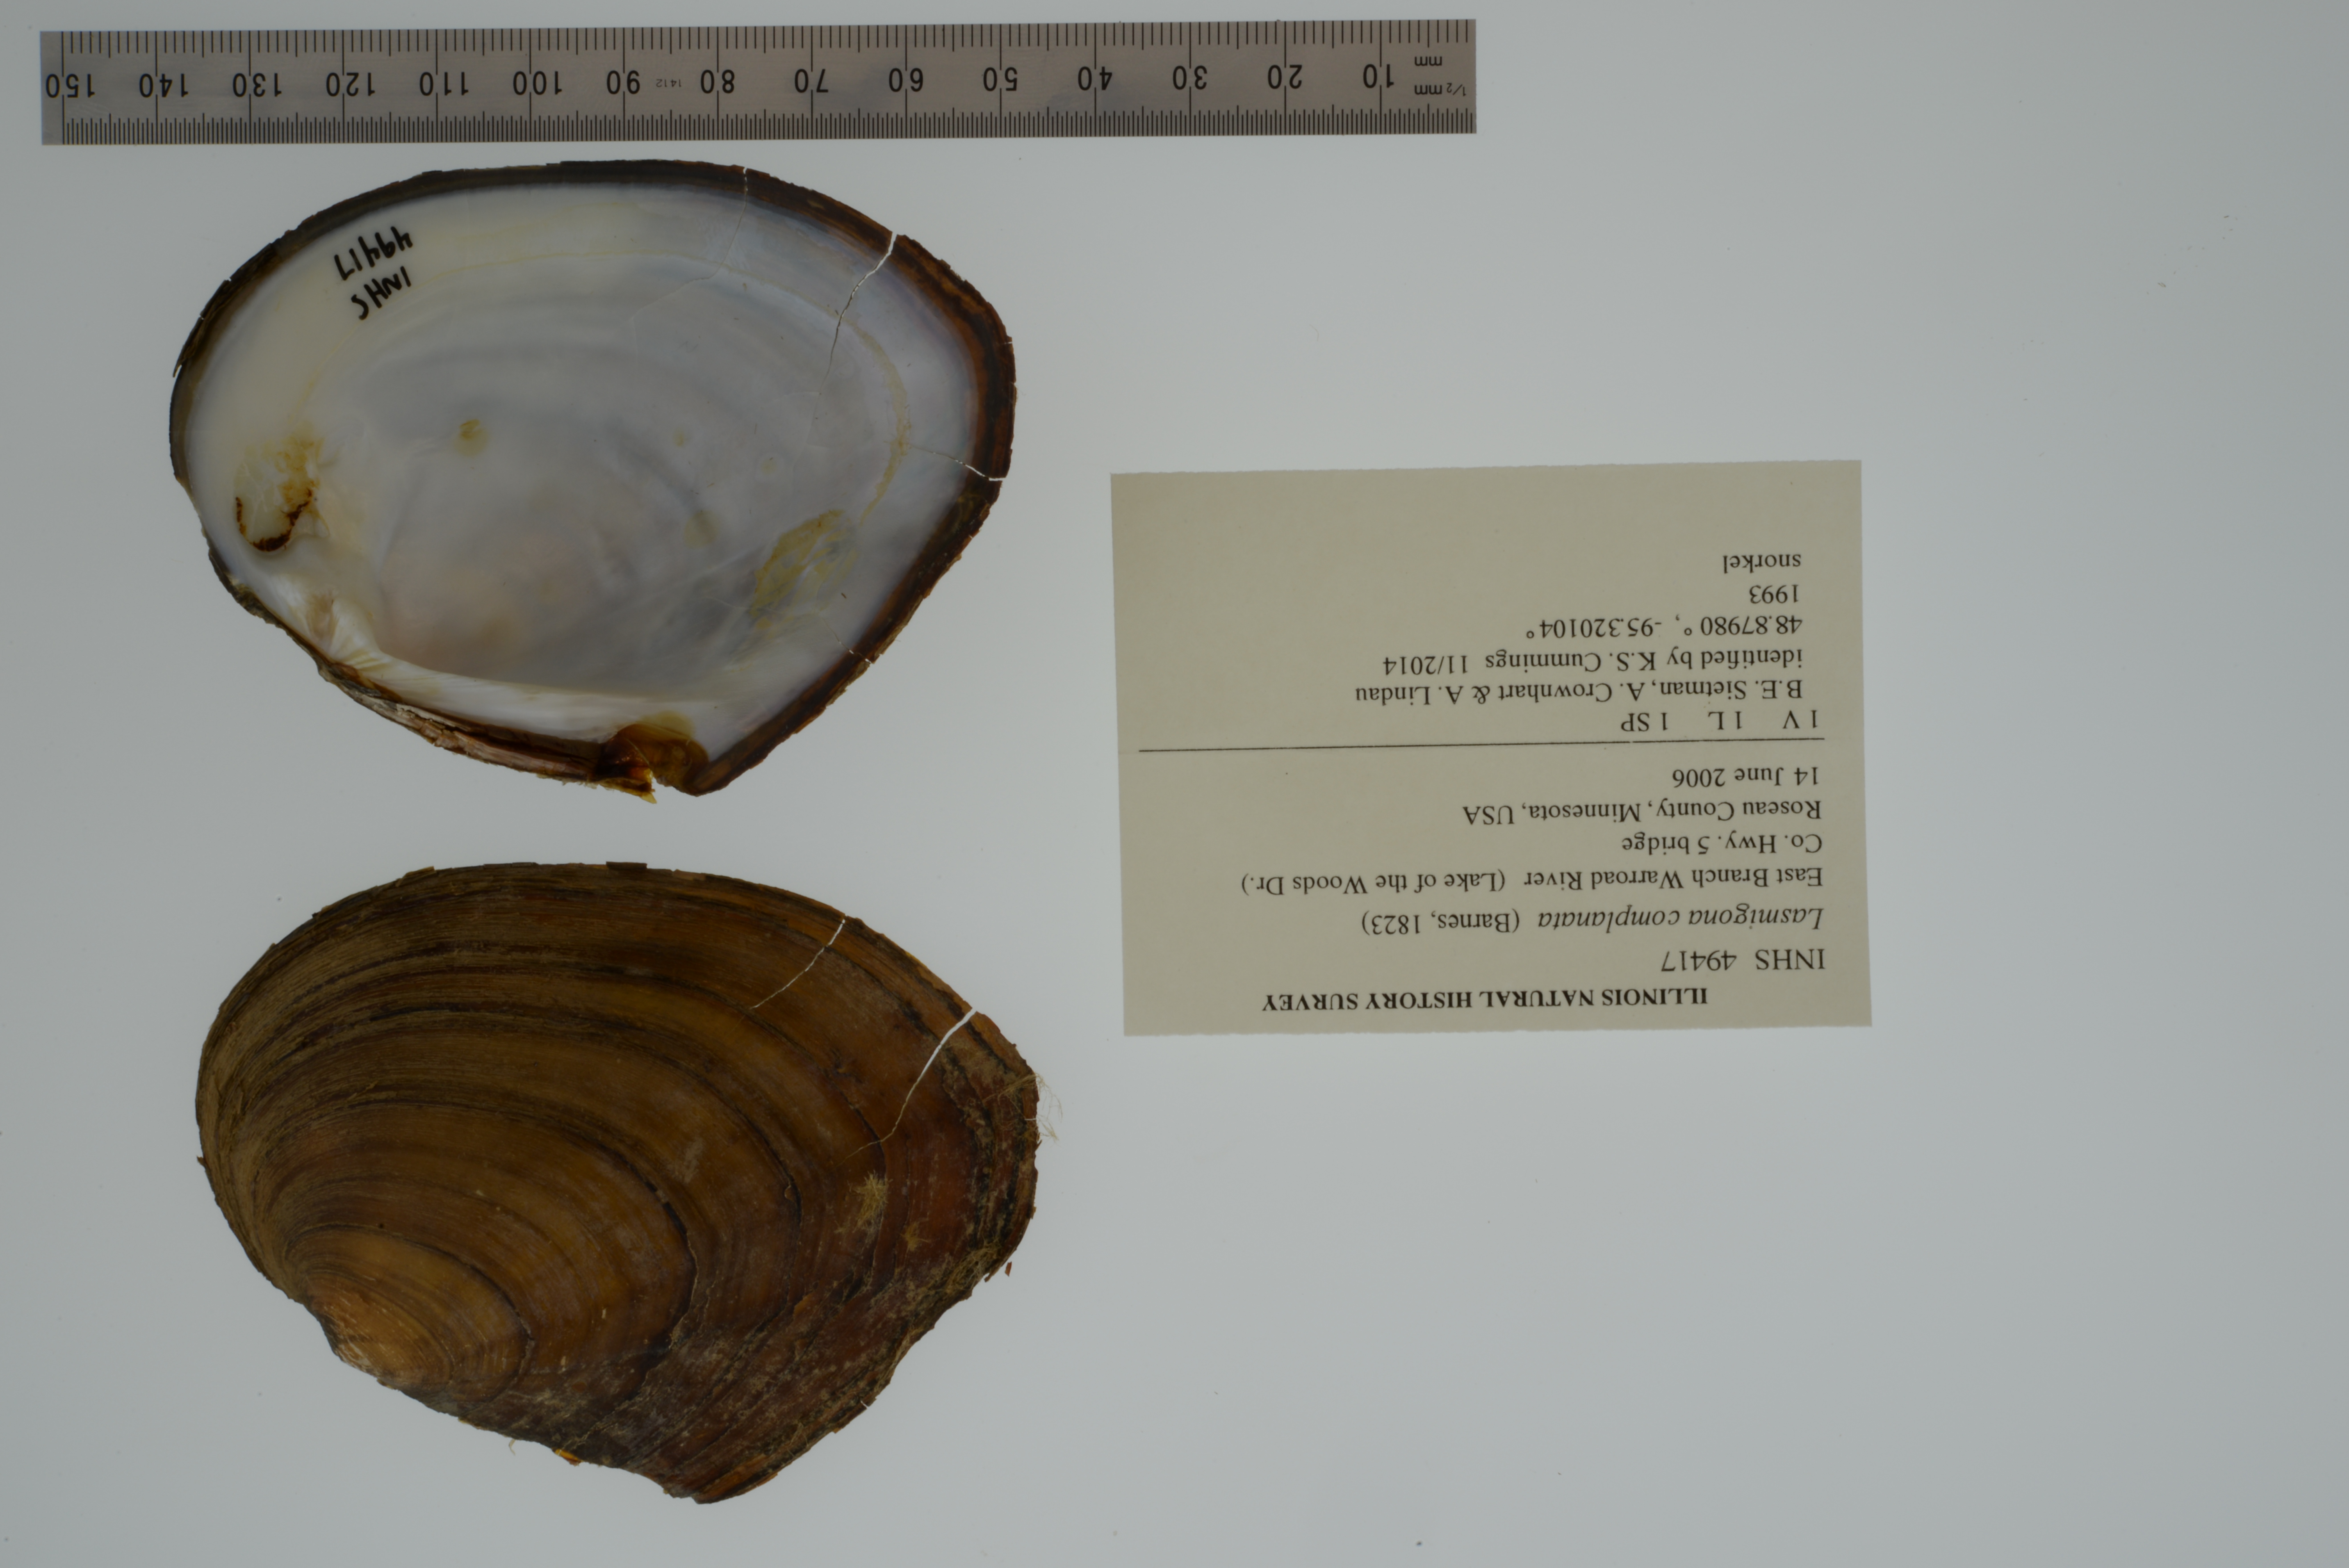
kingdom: Animalia
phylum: Mollusca
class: Bivalvia
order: Unionida
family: Unionidae
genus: Lasmigona
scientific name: Lasmigona complanata
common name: White heelsplitter
